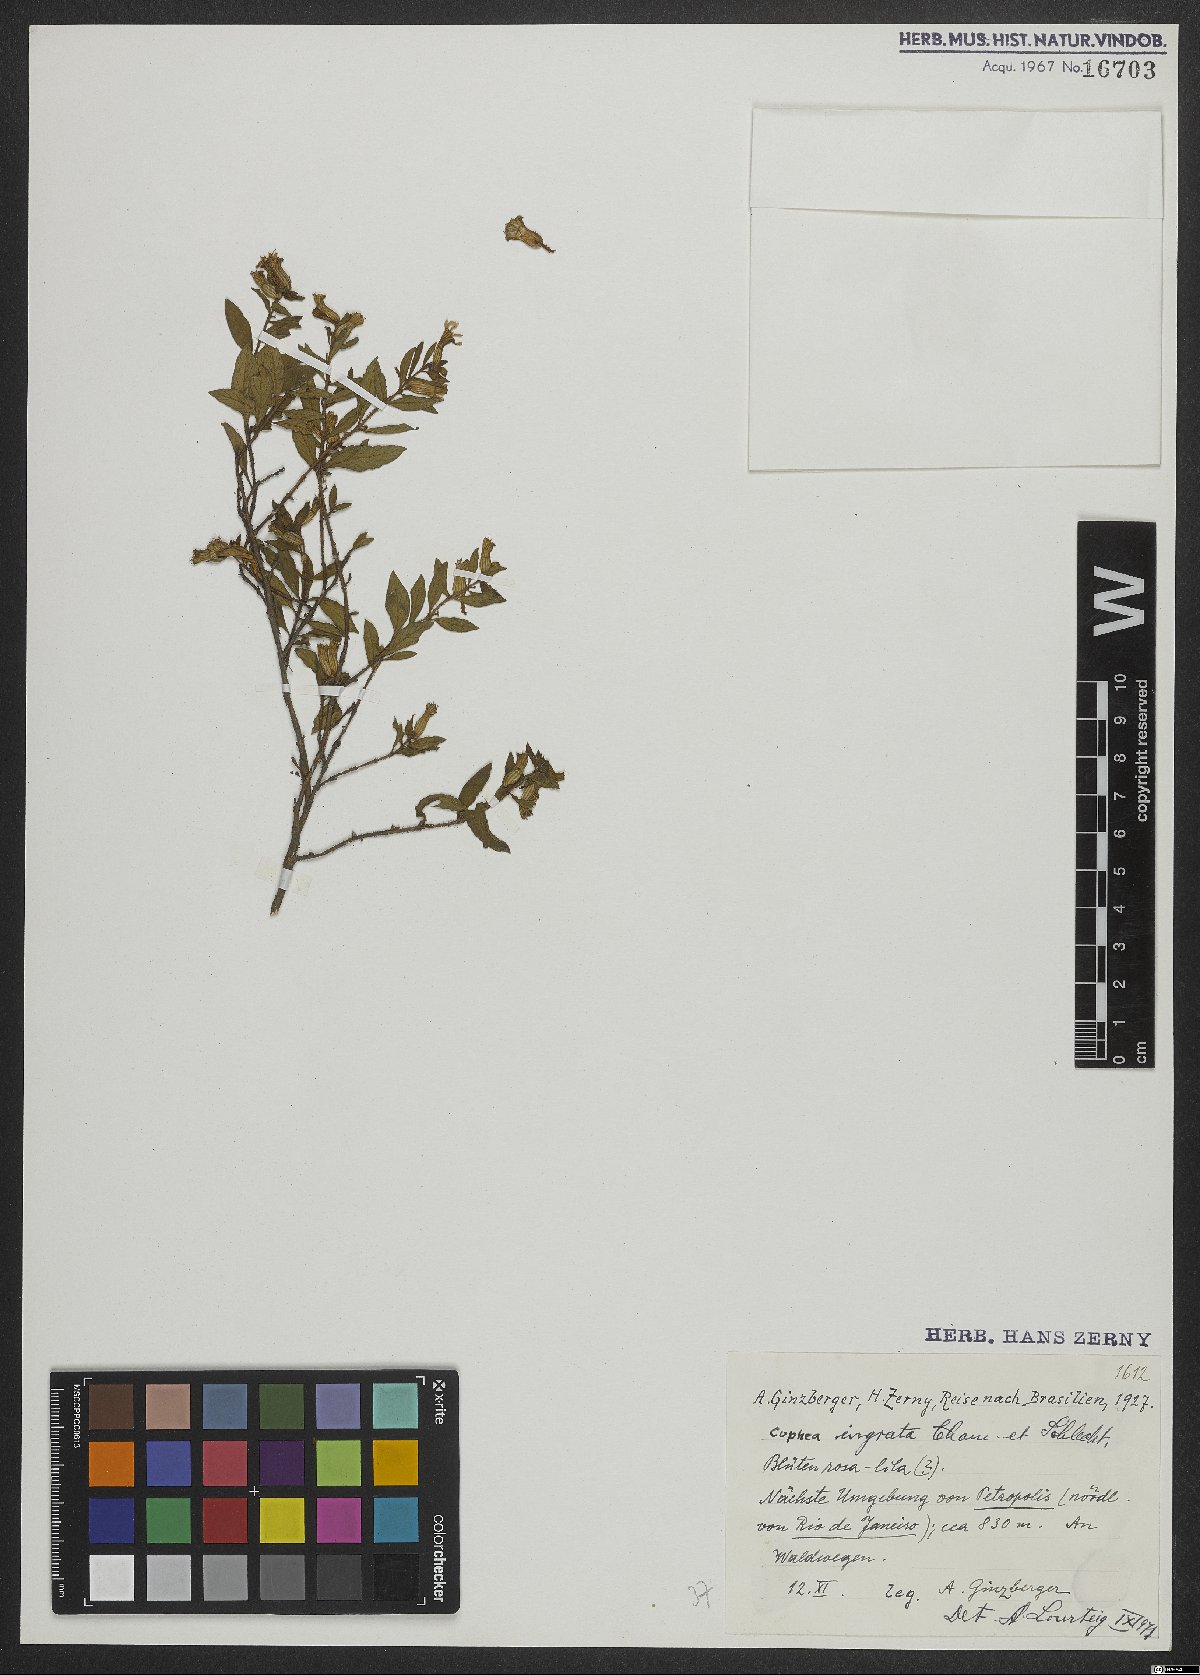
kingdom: Plantae
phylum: Tracheophyta
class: Magnoliopsida
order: Myrtales
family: Lythraceae
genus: Cuphea
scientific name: Cuphea ingrata
